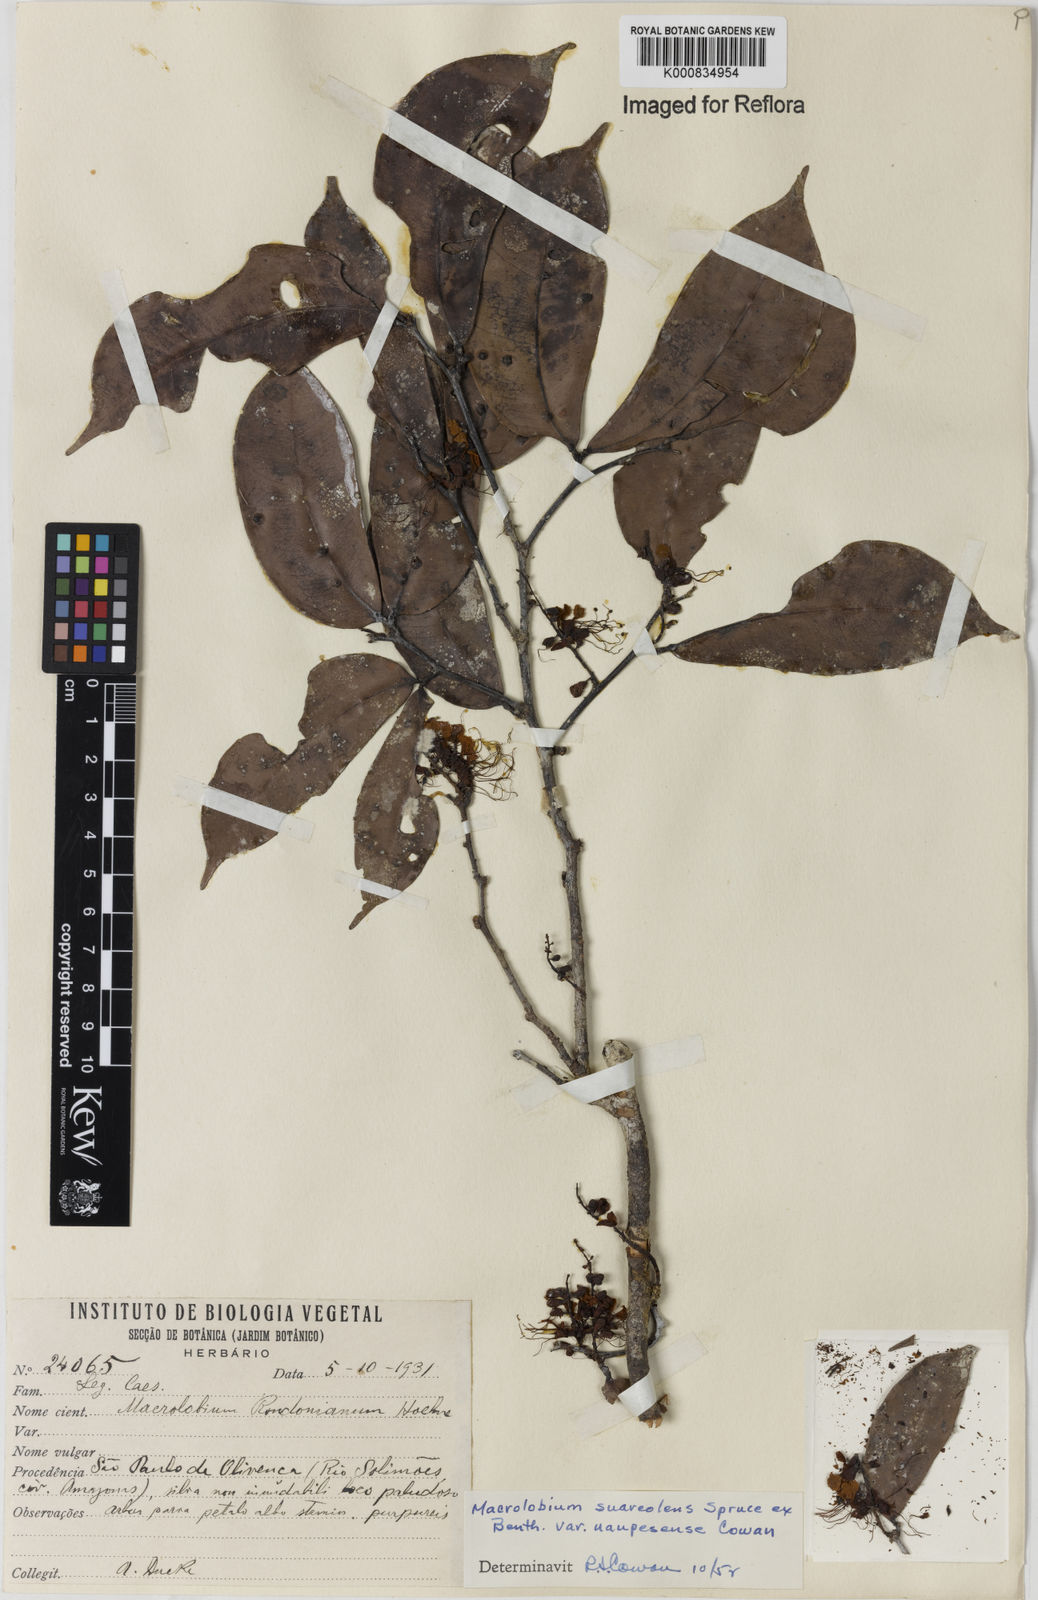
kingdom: Plantae
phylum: Tracheophyta
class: Magnoliopsida
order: Fabales
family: Fabaceae
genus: Macrolobium
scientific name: Macrolobium suaveolens
